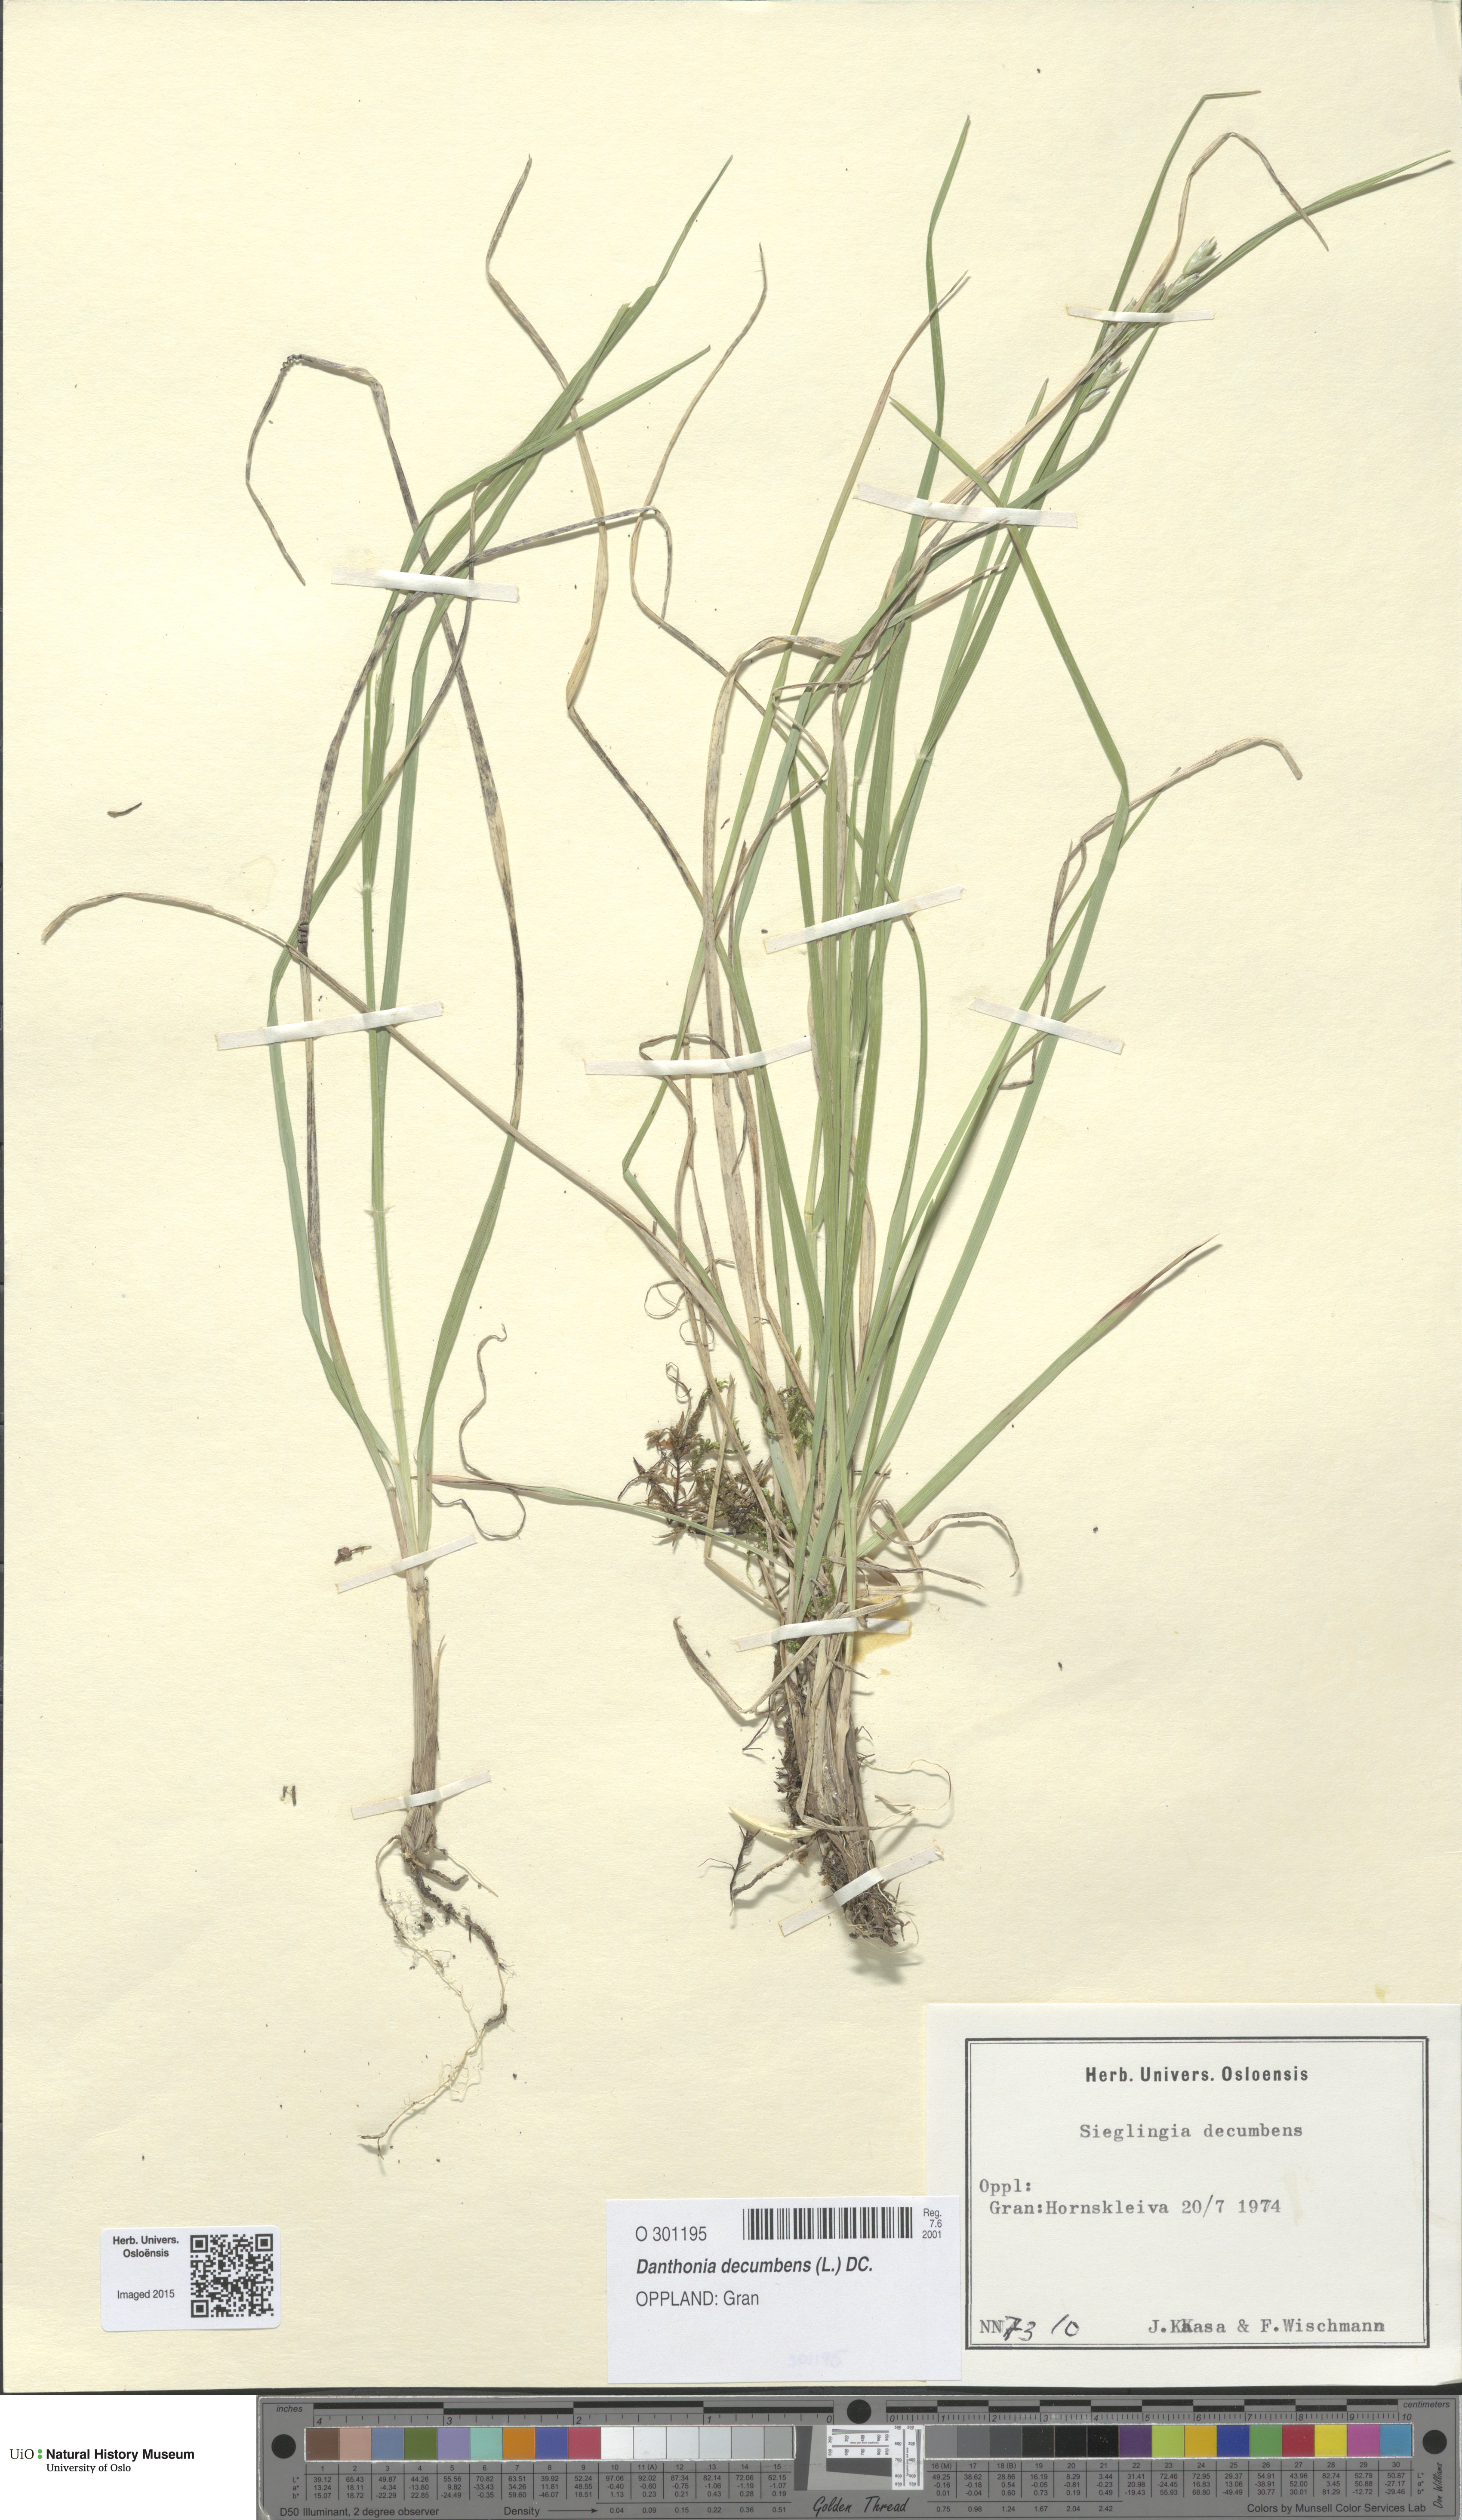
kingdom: Plantae
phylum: Tracheophyta
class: Liliopsida
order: Poales
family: Poaceae
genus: Danthonia
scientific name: Danthonia decumbens
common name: Common heathgrass
